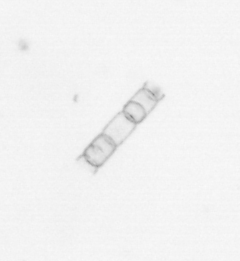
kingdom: Chromista
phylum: Ochrophyta
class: Bacillariophyceae
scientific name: Bacillariophyceae
